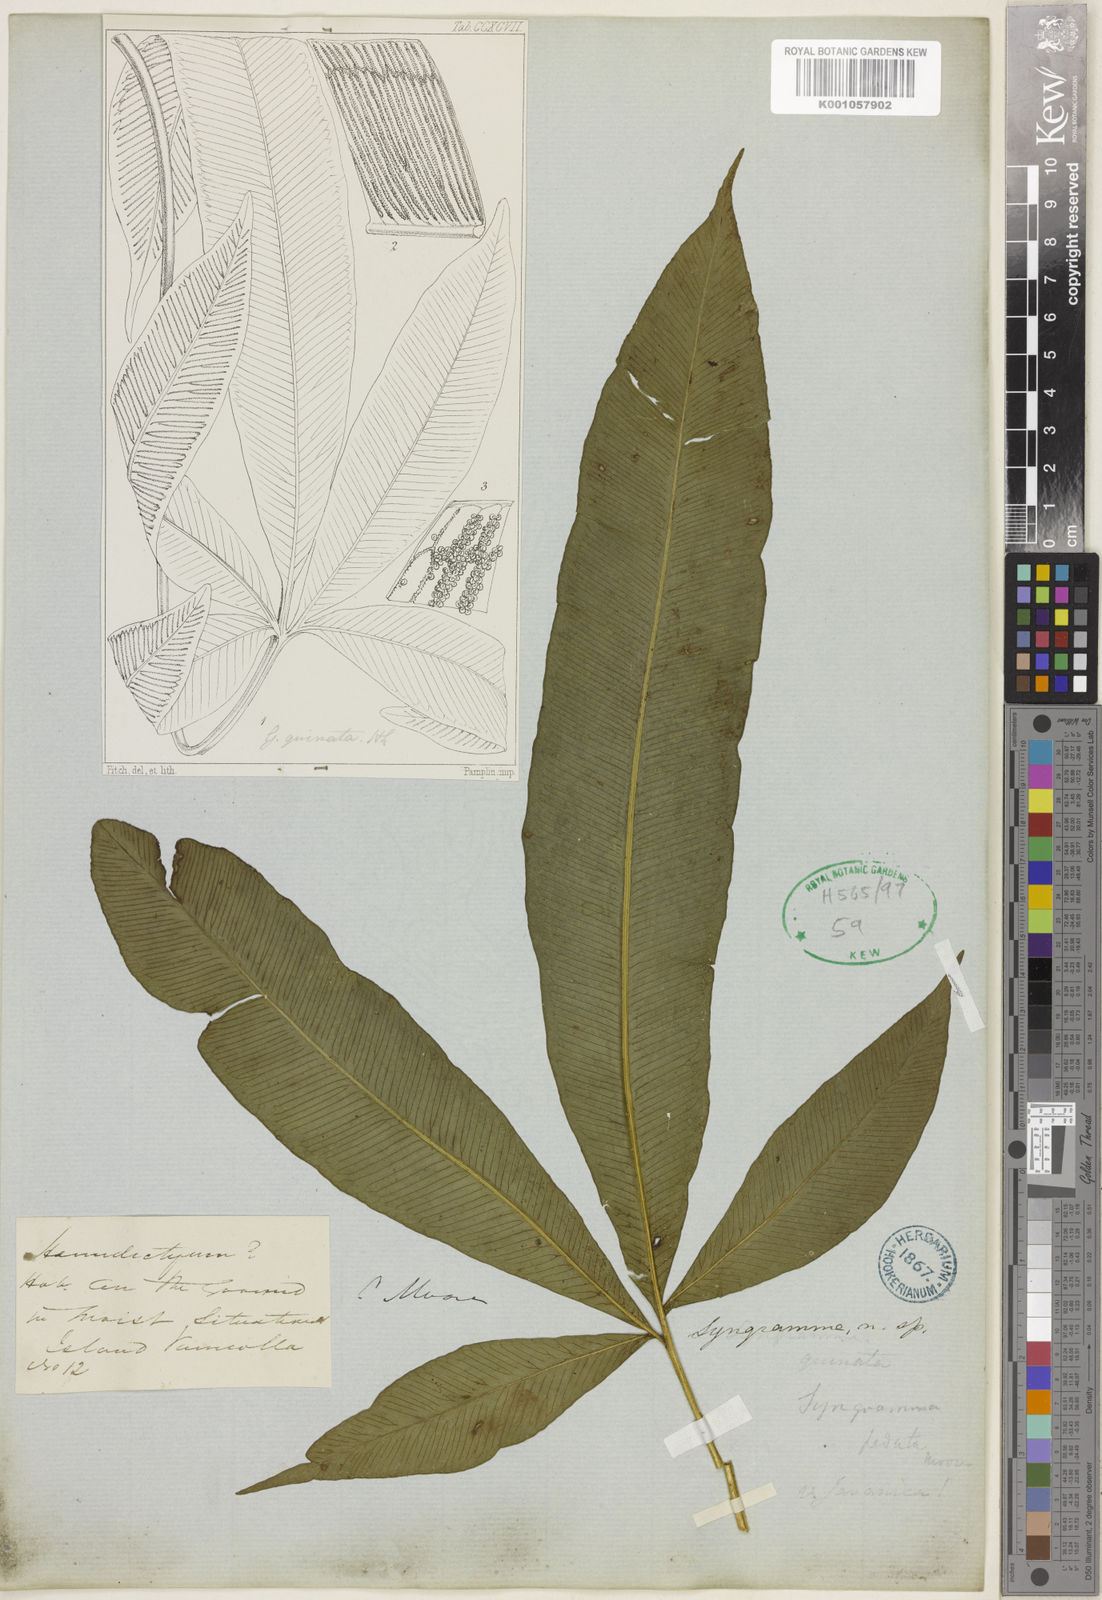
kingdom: Plantae
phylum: Tracheophyta
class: Polypodiopsida
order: Polypodiales
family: Pteridaceae
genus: Syngramma
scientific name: Syngramma quinata
